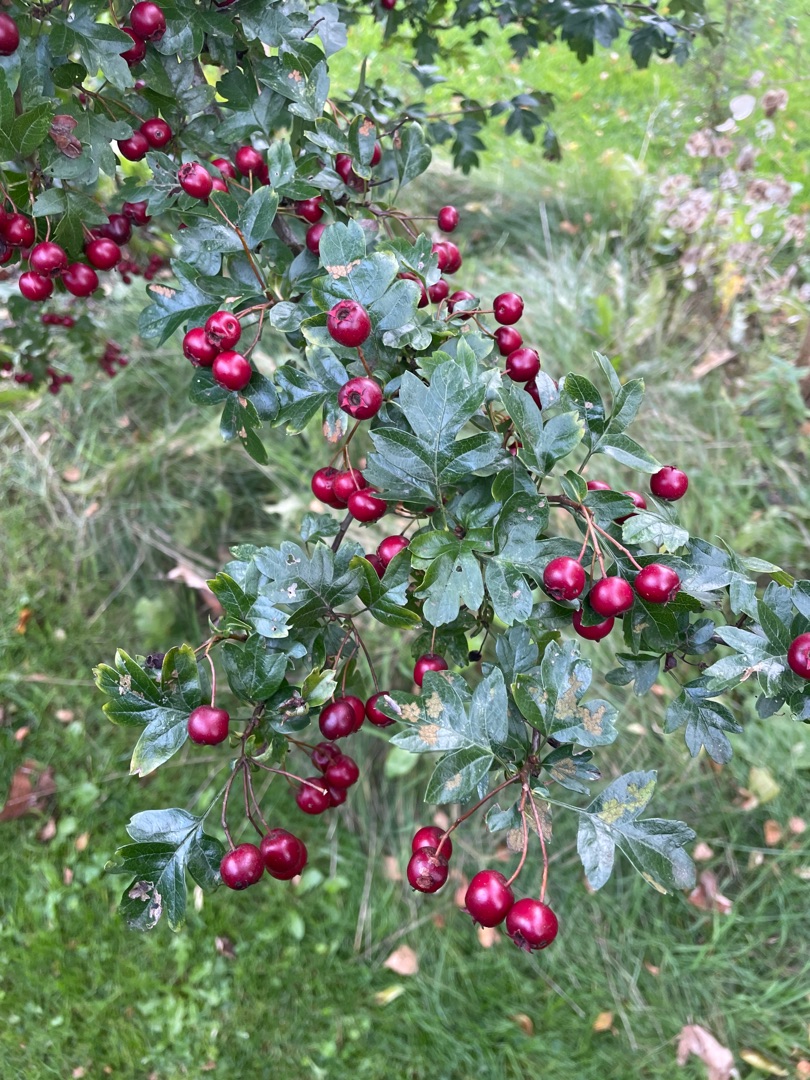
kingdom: Plantae
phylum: Tracheophyta
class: Magnoliopsida
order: Rosales
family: Rosaceae
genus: Crataegus
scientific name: Crataegus monogyna
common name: Engriflet hvidtjørn
